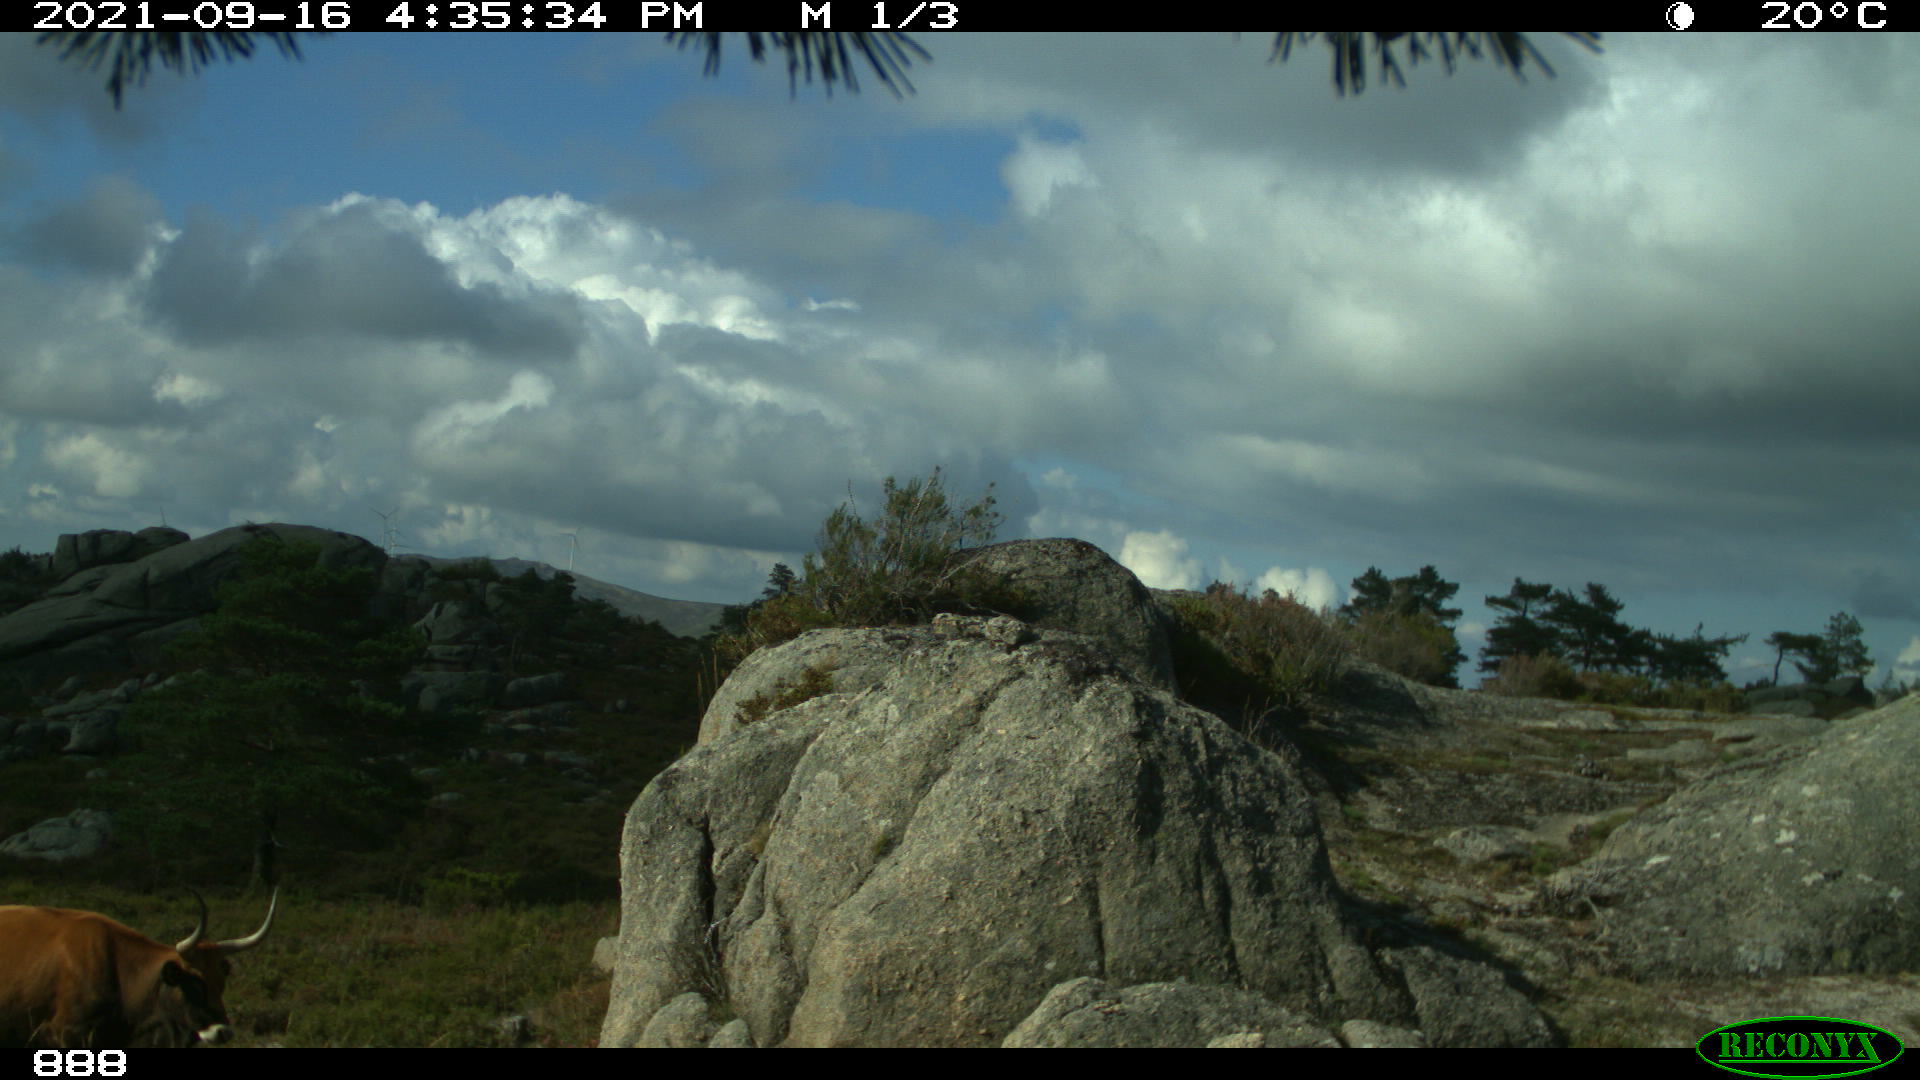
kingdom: Animalia
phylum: Chordata
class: Mammalia
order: Artiodactyla
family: Bovidae
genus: Bos
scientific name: Bos taurus
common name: Domesticated cattle
